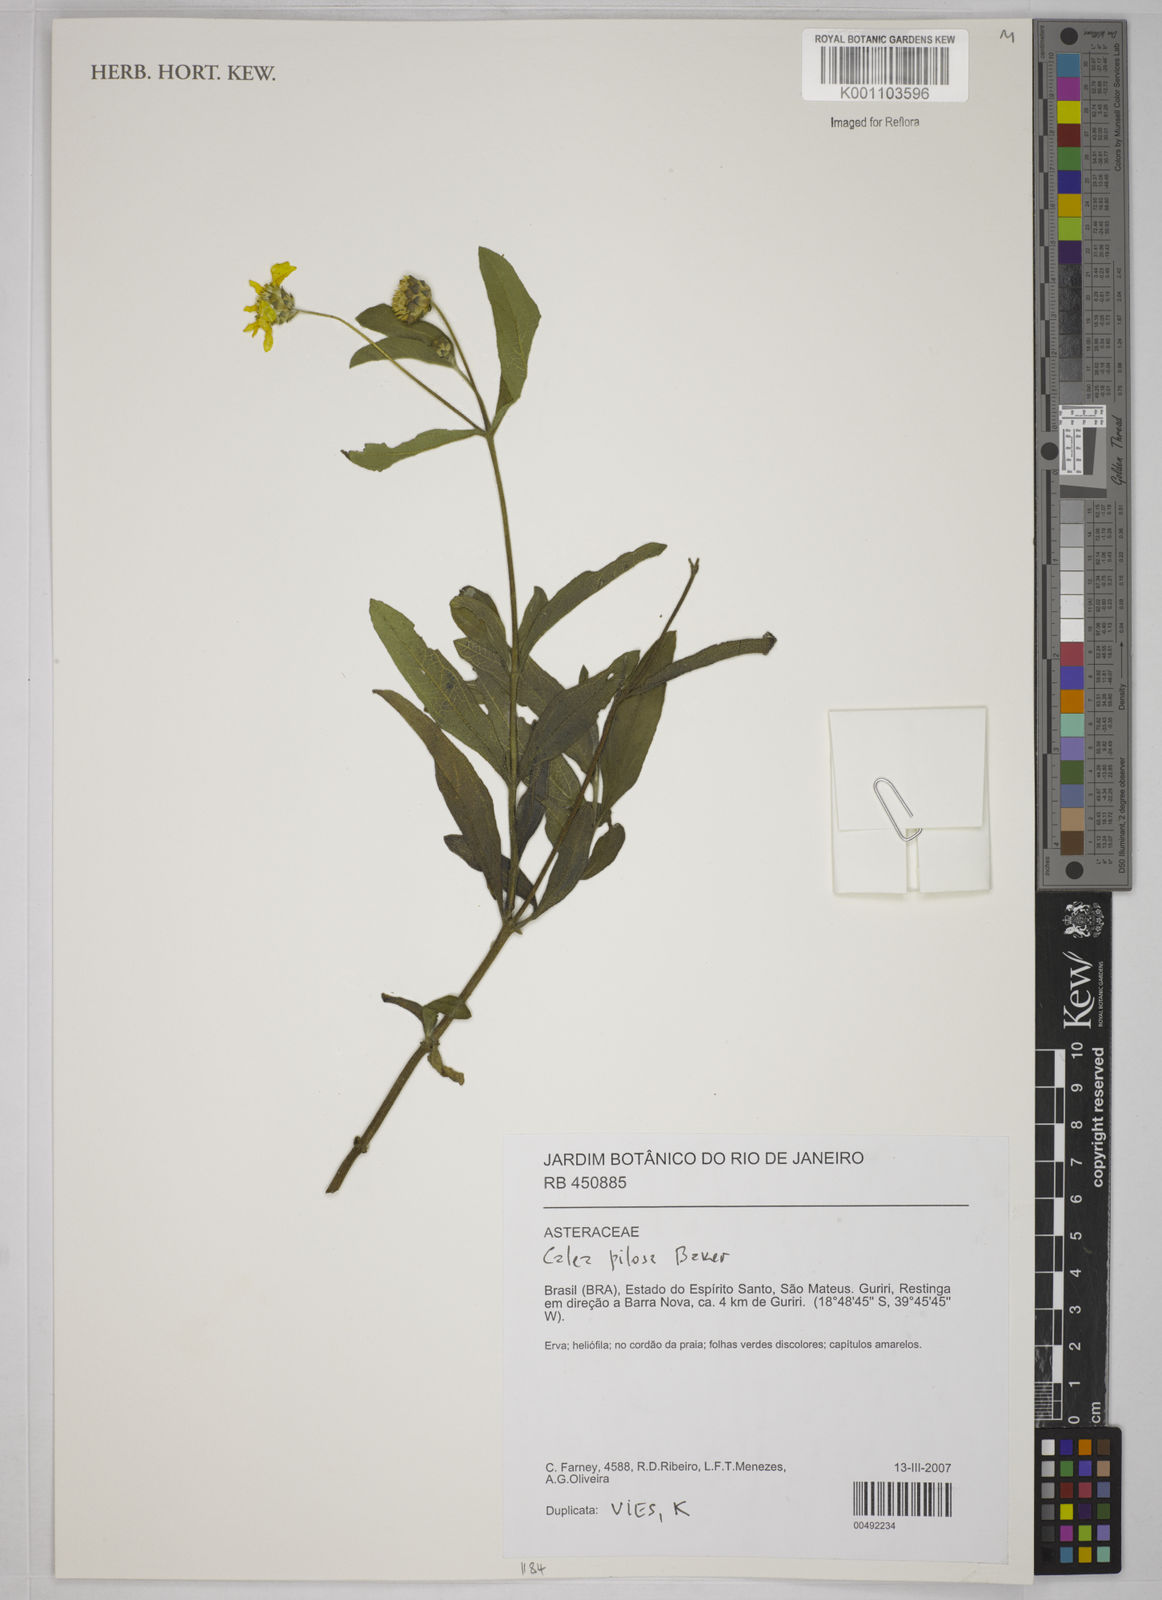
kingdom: Plantae
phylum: Tracheophyta
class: Magnoliopsida
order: Asterales
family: Asteraceae
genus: Calea
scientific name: Calea pilosa
